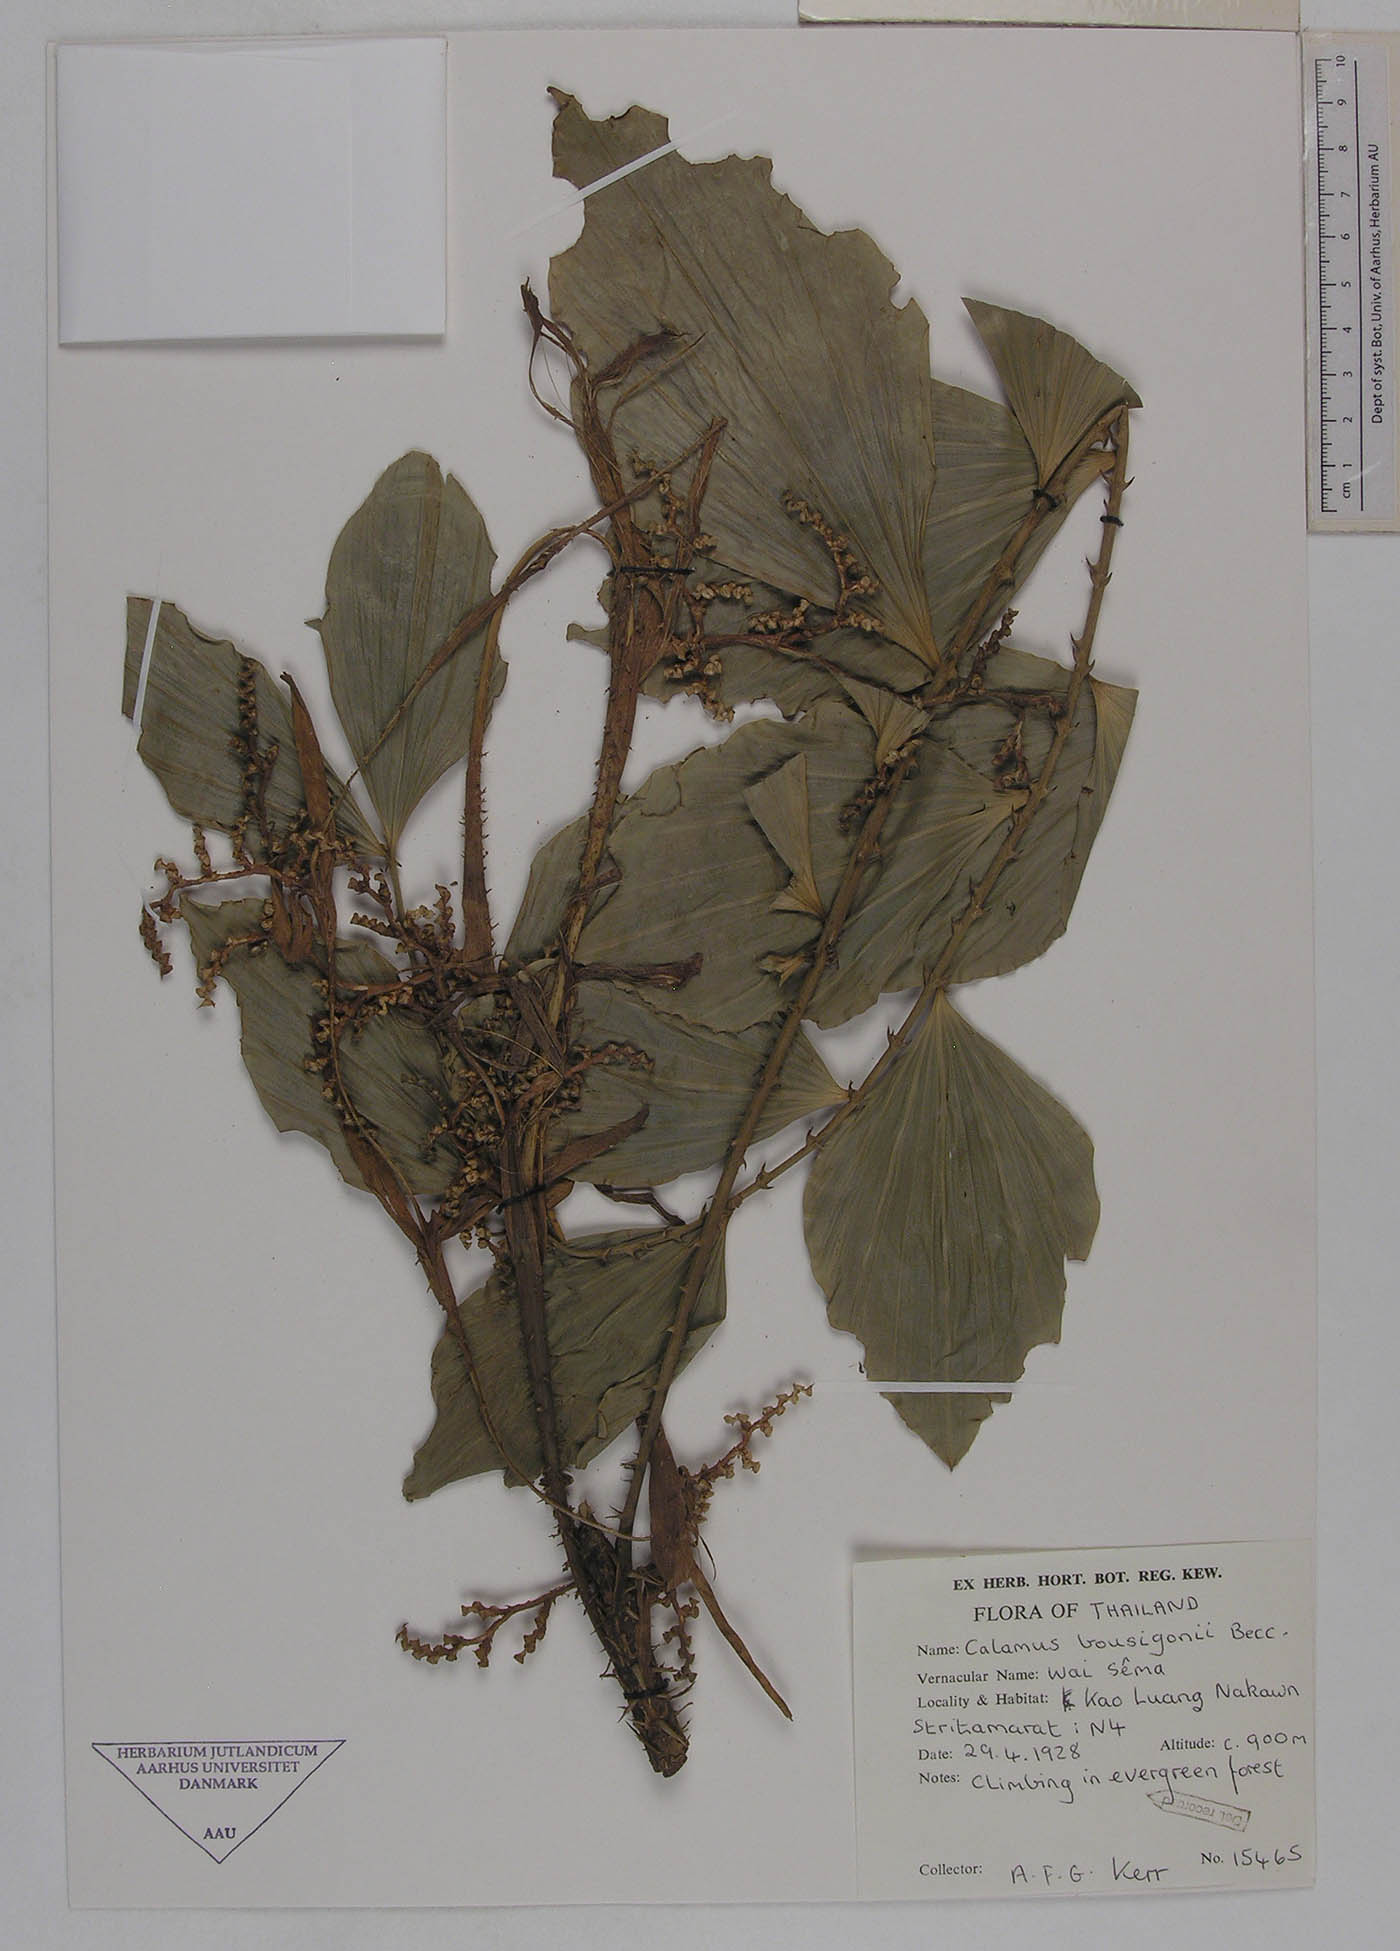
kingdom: Plantae
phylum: Tracheophyta
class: Liliopsida
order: Arecales
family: Arecaceae
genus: Calamus
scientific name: Calamus bousigonii
